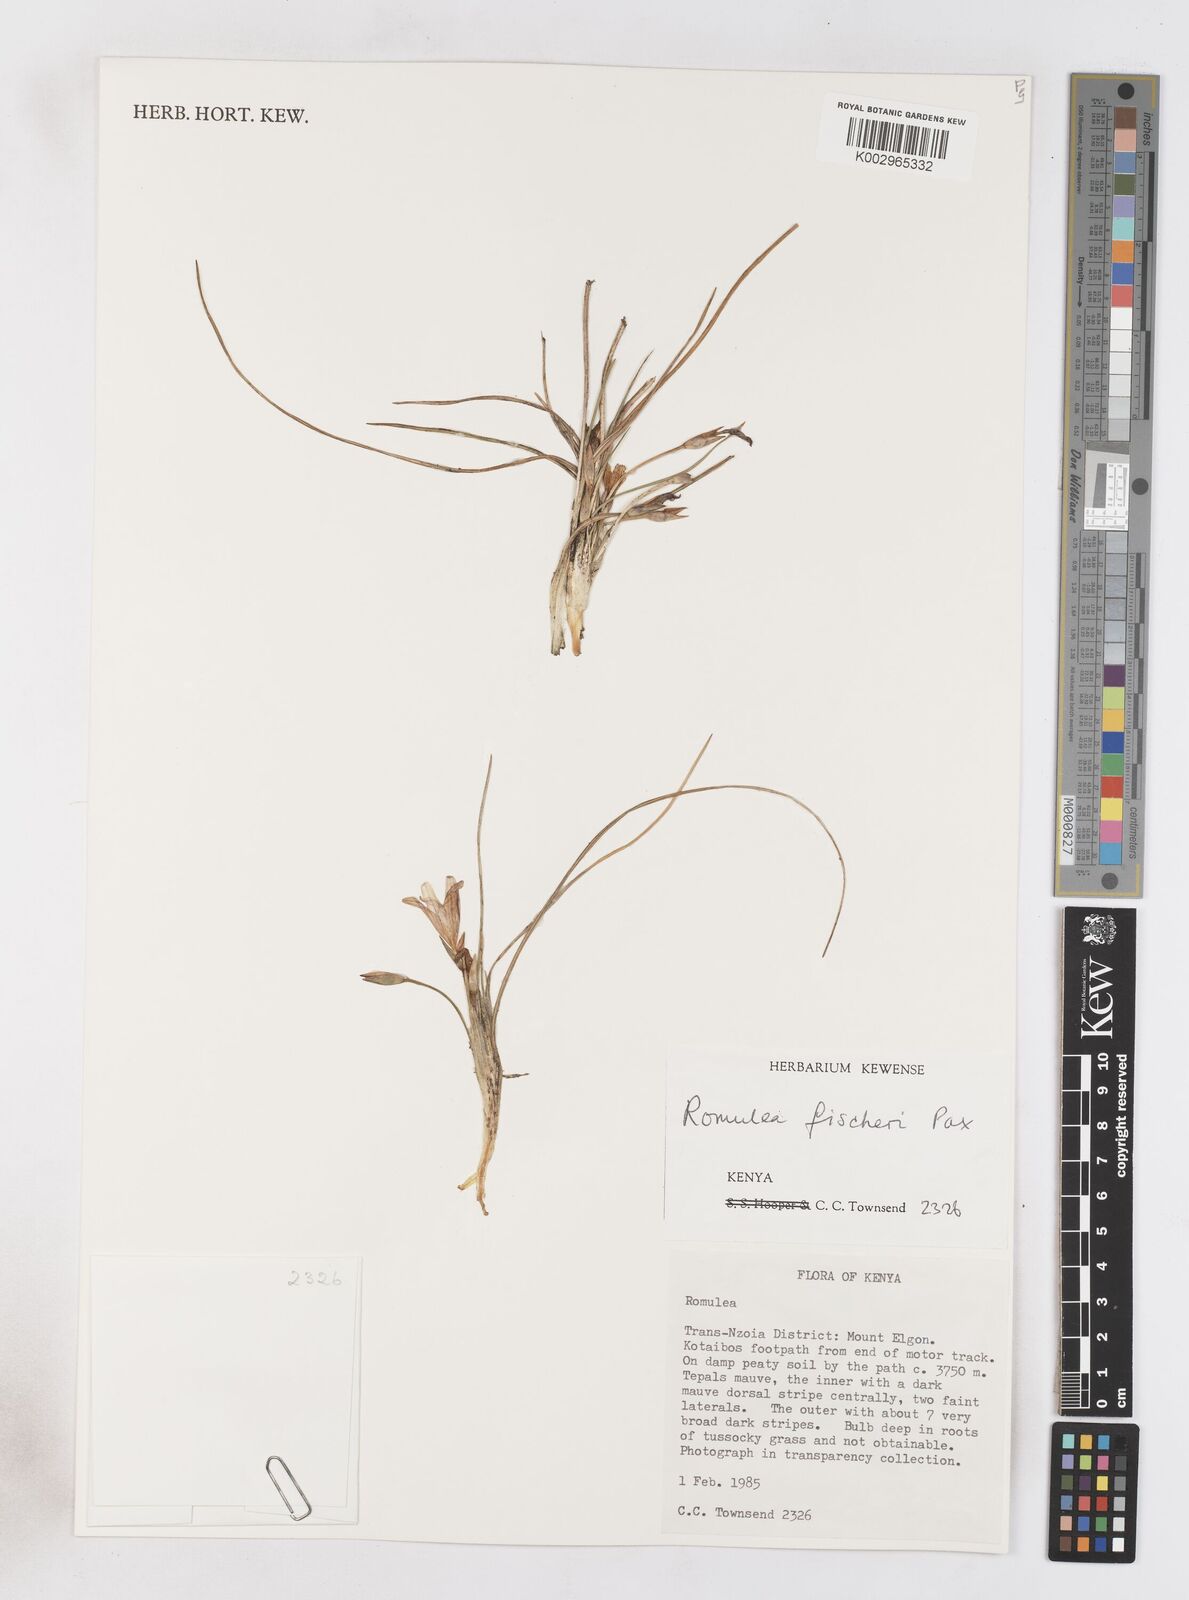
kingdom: Plantae
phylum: Tracheophyta
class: Liliopsida
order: Asparagales
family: Iridaceae
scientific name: Iridaceae
